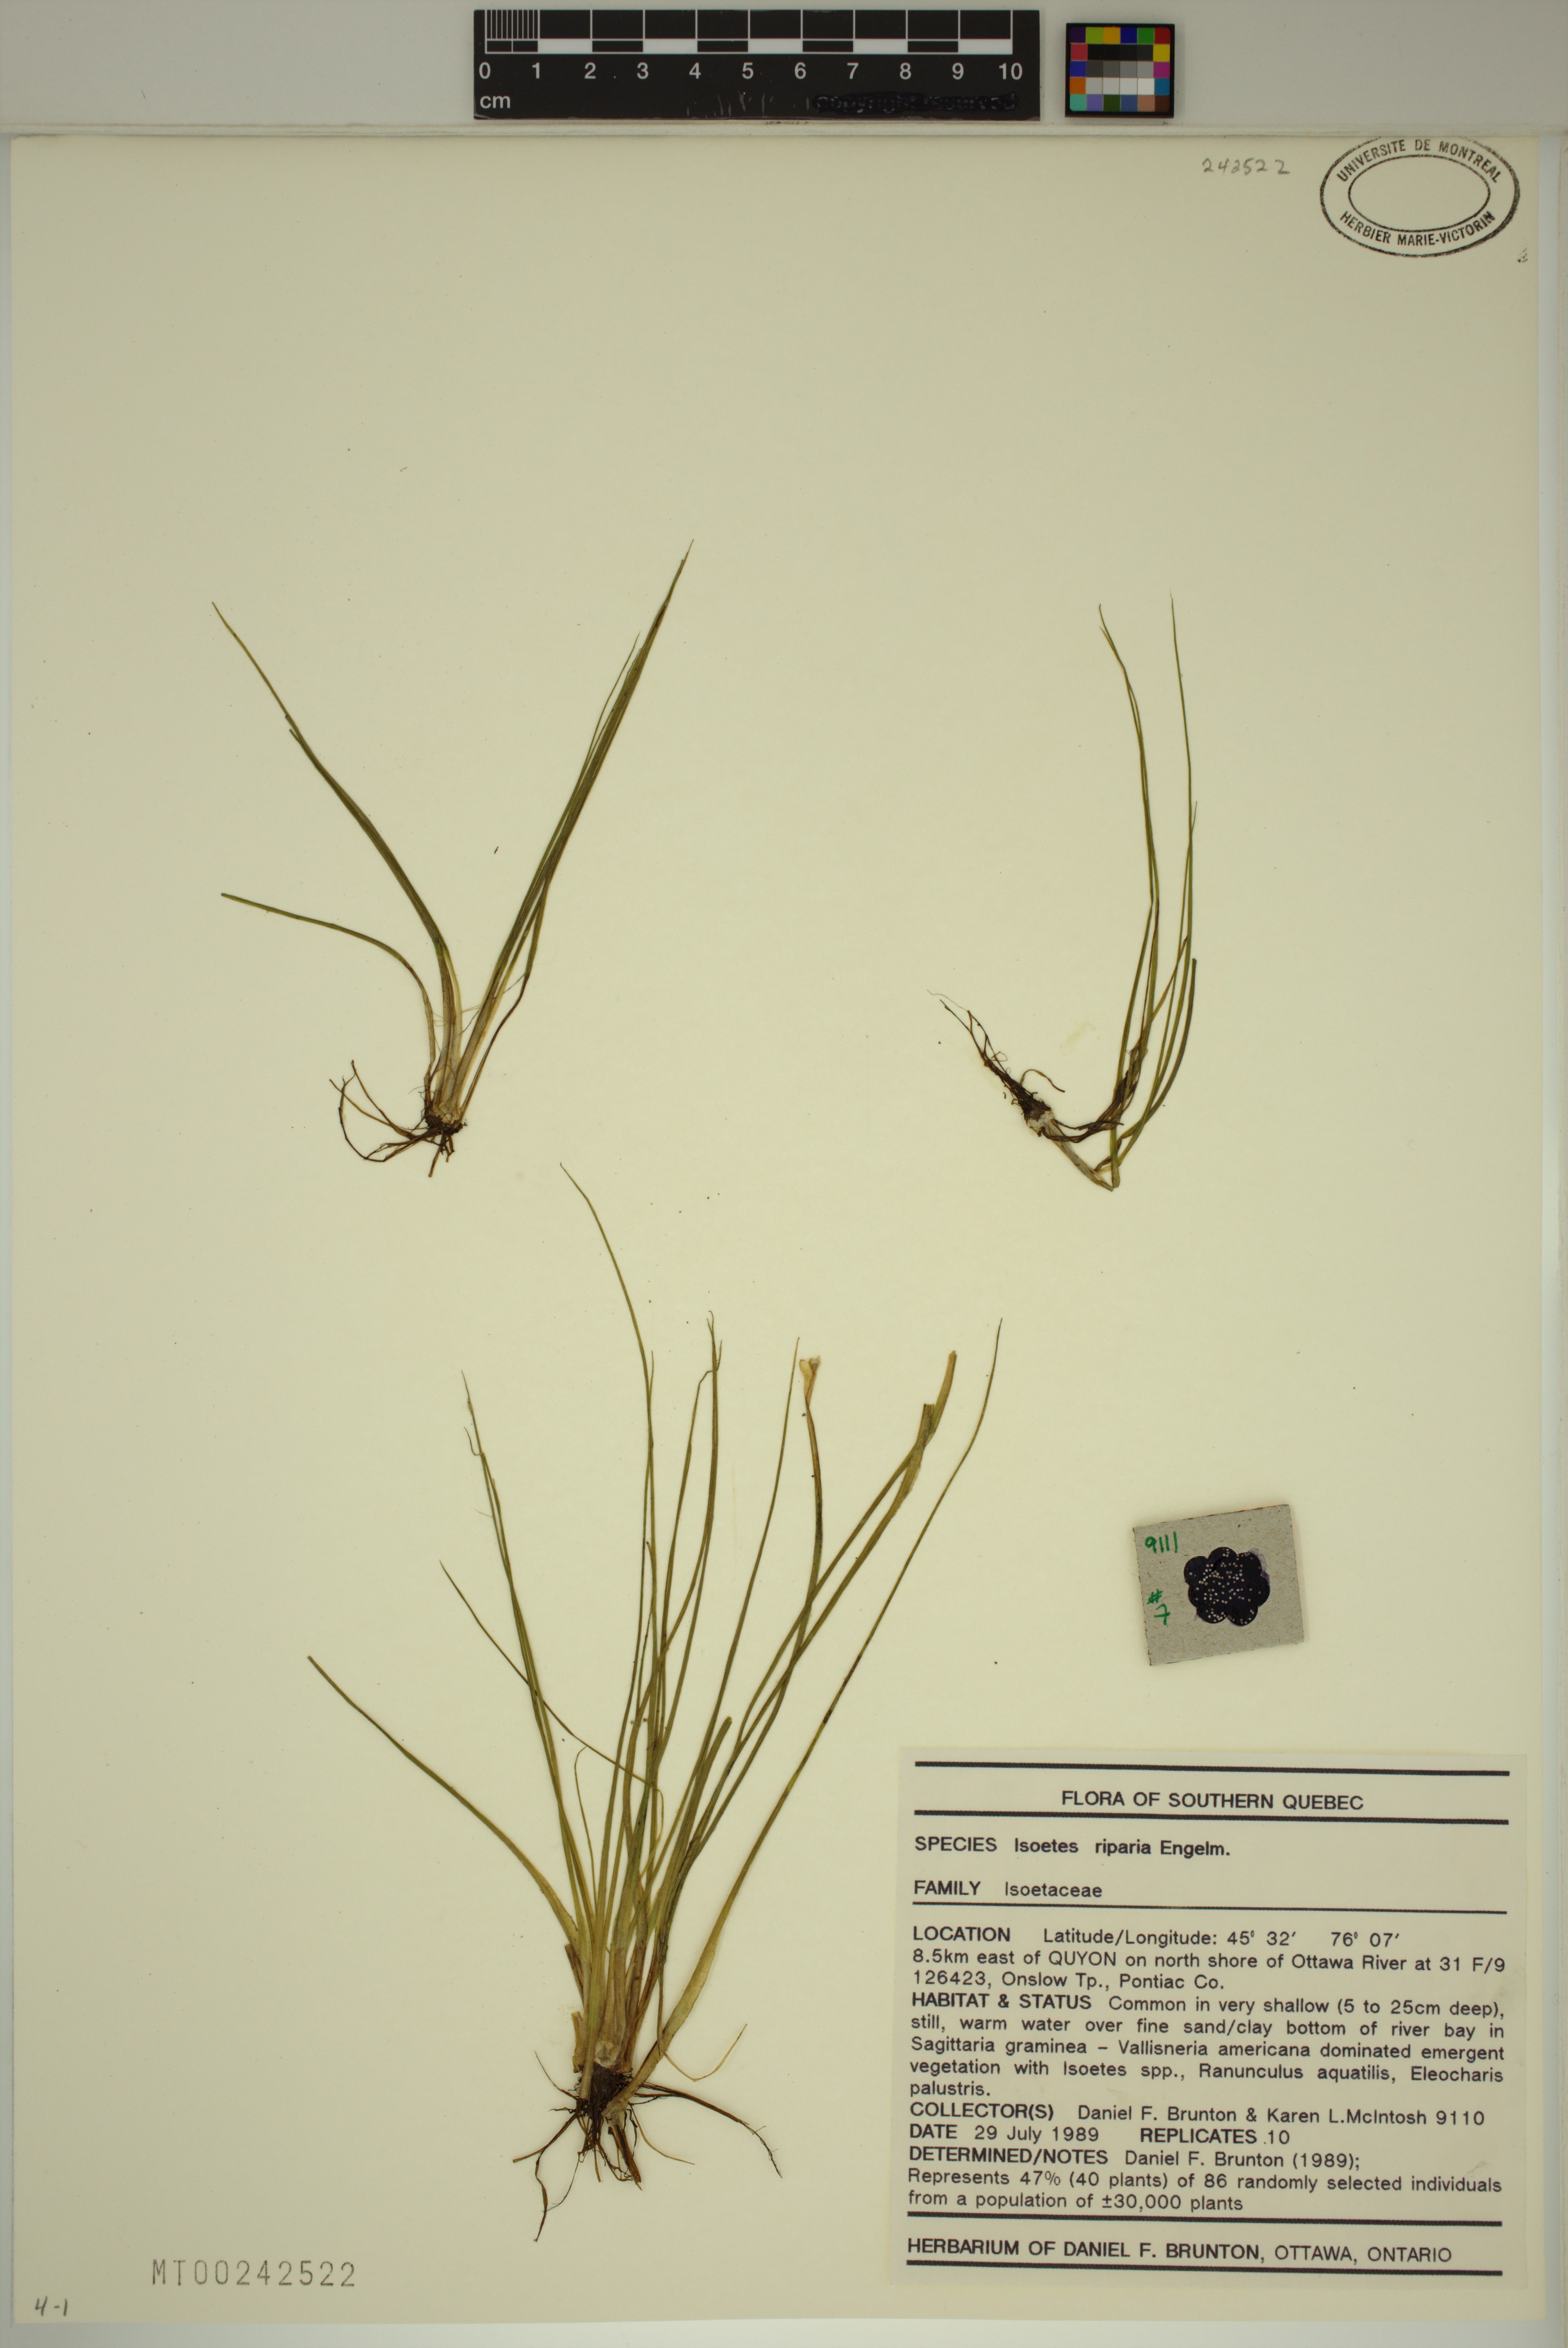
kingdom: Plantae
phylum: Tracheophyta
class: Lycopodiopsida
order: Isoetales
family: Isoetaceae
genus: Isoetes
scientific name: Isoetes septentrionalis
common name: Northern quillwort
